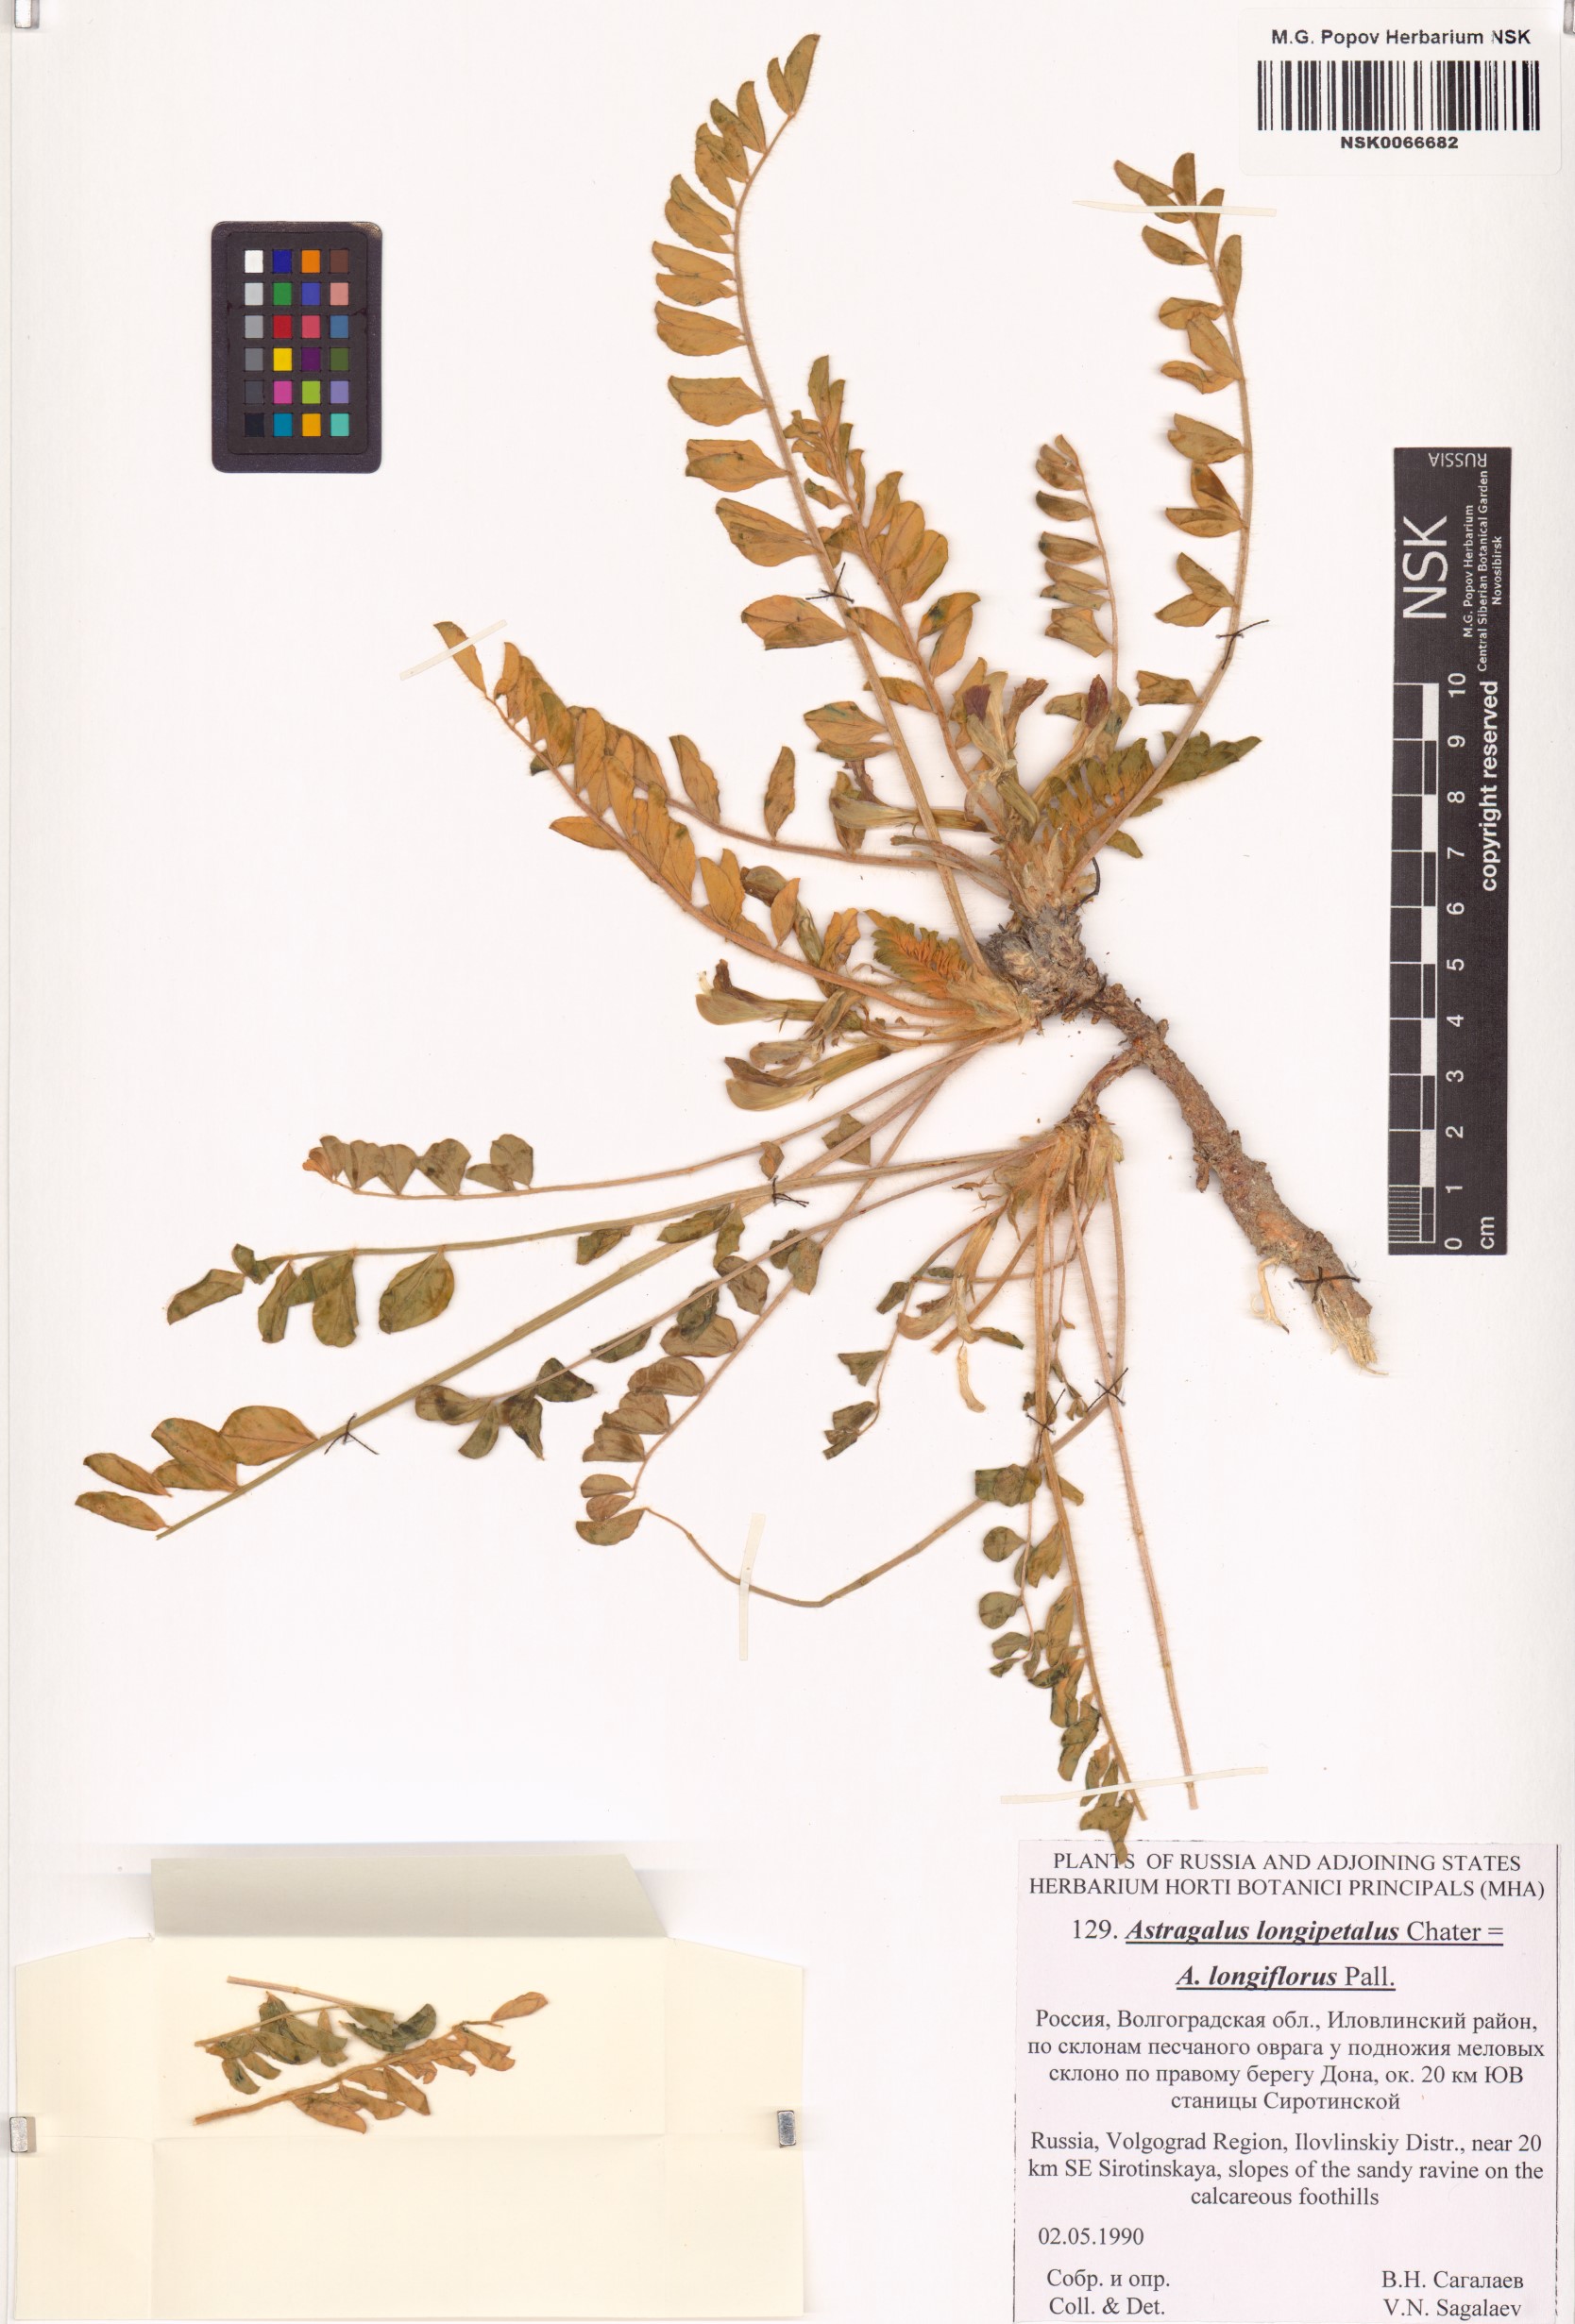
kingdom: Plantae
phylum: Tracheophyta
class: Magnoliopsida
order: Fabales
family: Fabaceae
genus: Astragalus
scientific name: Astragalus longipetalus
